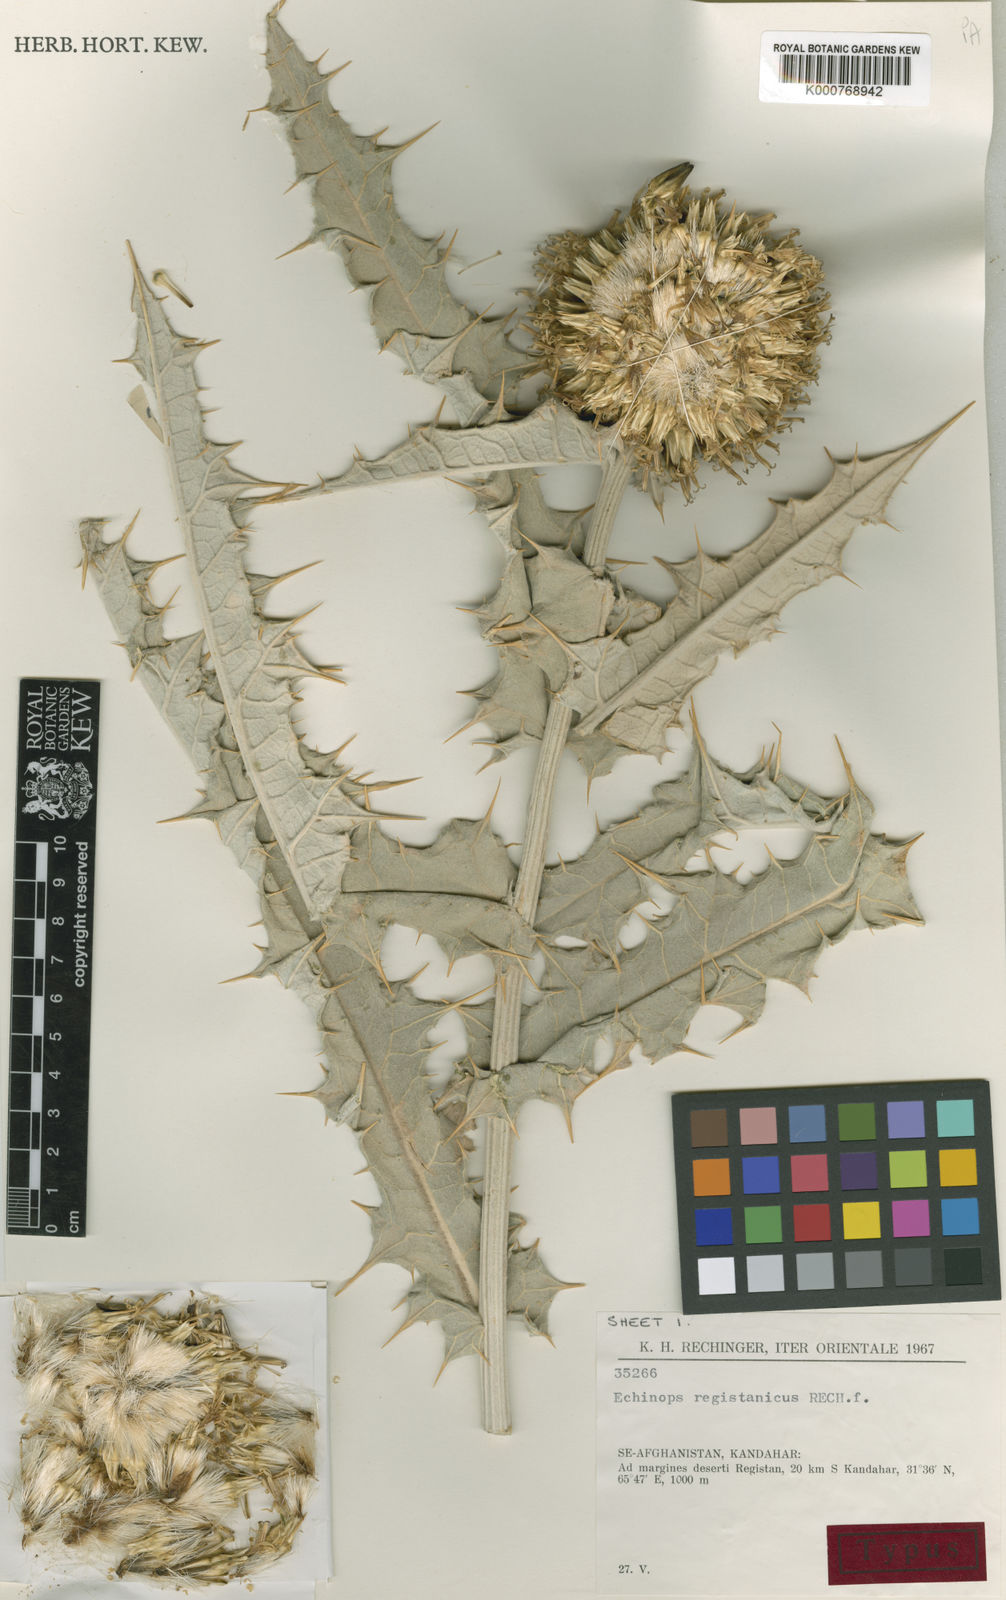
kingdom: Plantae
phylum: Tracheophyta
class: Magnoliopsida
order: Asterales
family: Asteraceae
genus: Echinops
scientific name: Echinops registanicus
